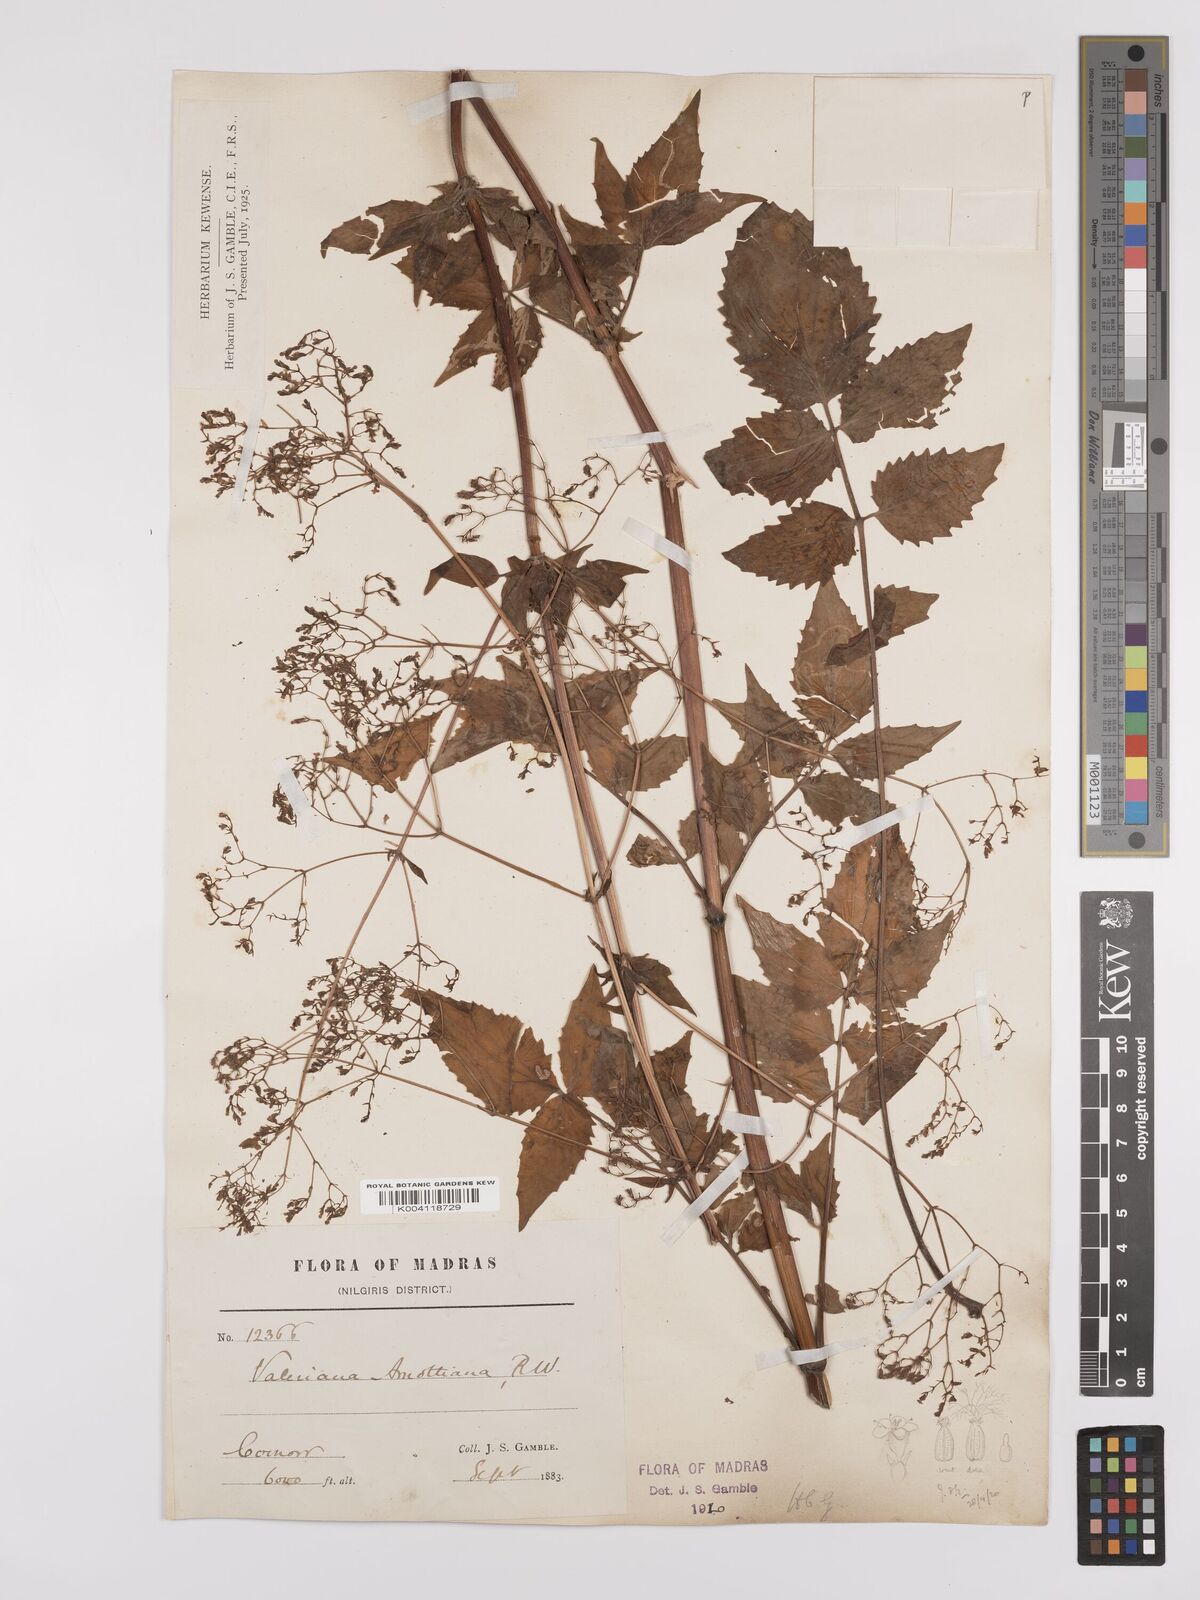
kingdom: Plantae
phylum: Tracheophyta
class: Magnoliopsida
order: Dipsacales
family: Caprifoliaceae
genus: Valeriana
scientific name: Valeriana hardwickei
